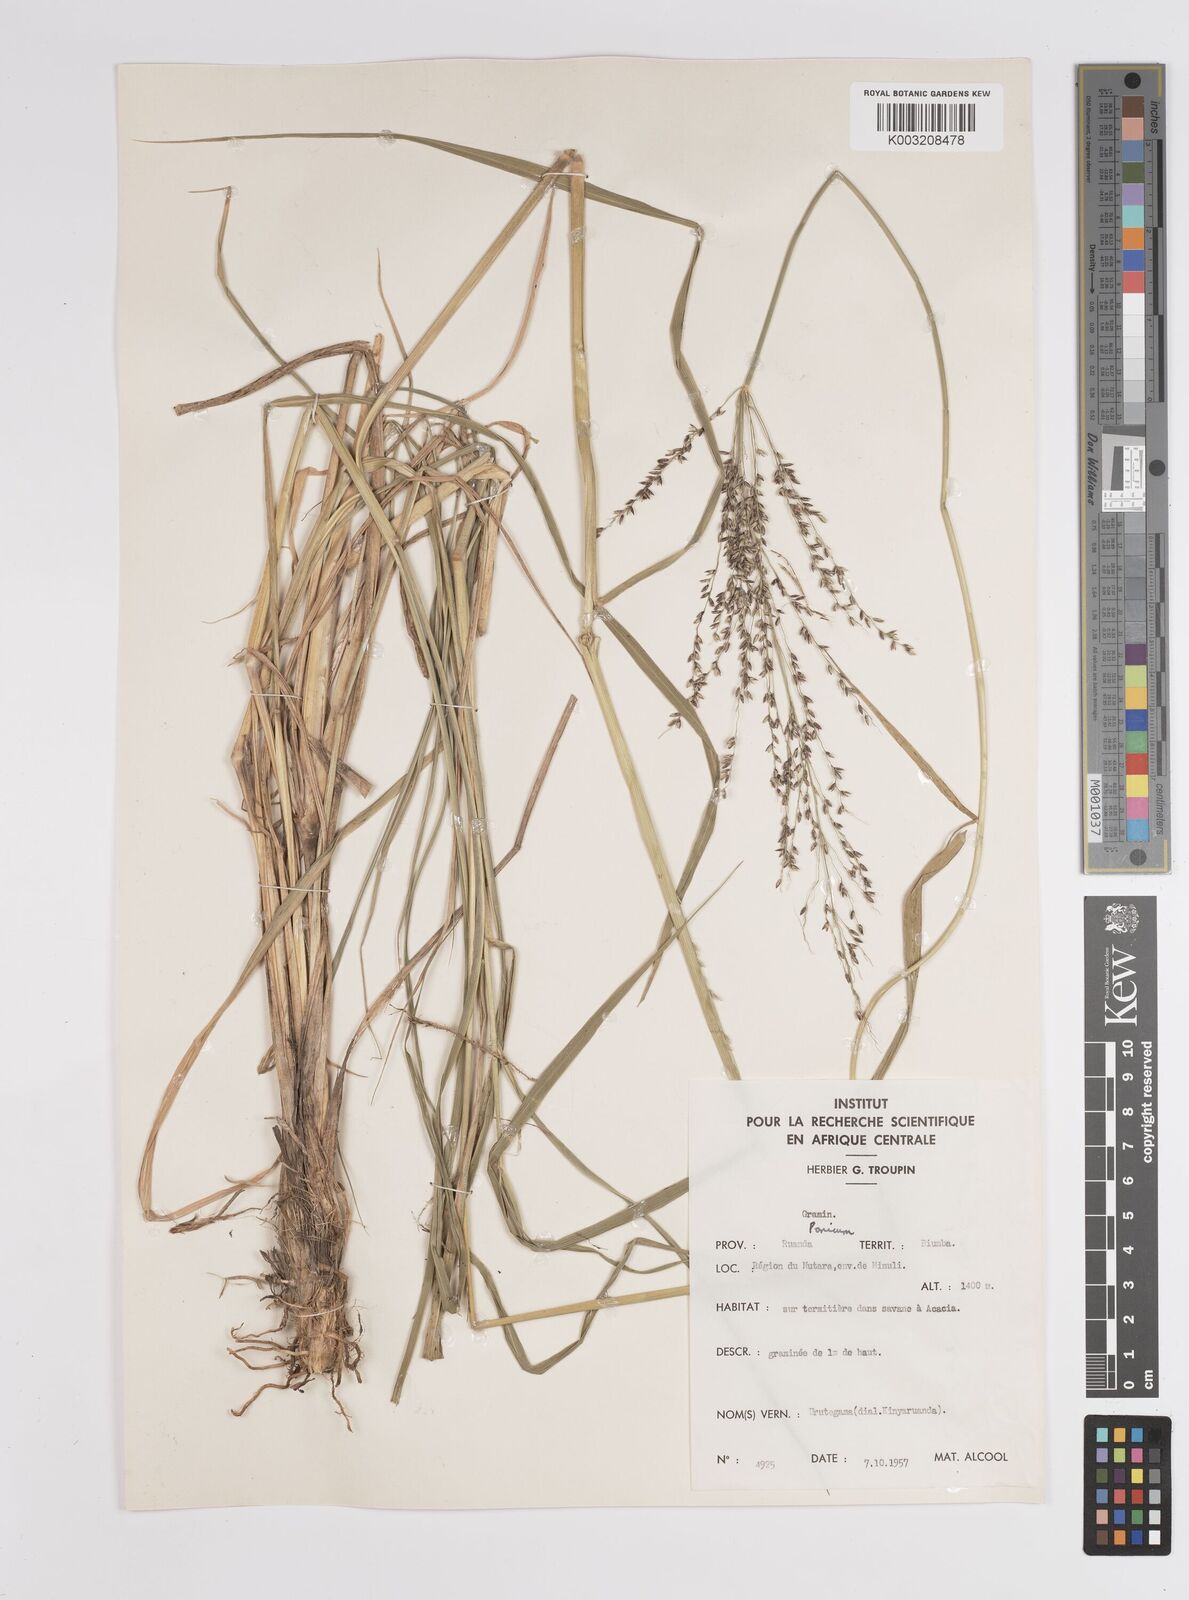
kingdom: Plantae
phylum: Tracheophyta
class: Liliopsida
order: Poales
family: Poaceae
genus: Megathyrsus
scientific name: Megathyrsus maximus
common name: Guineagrass
